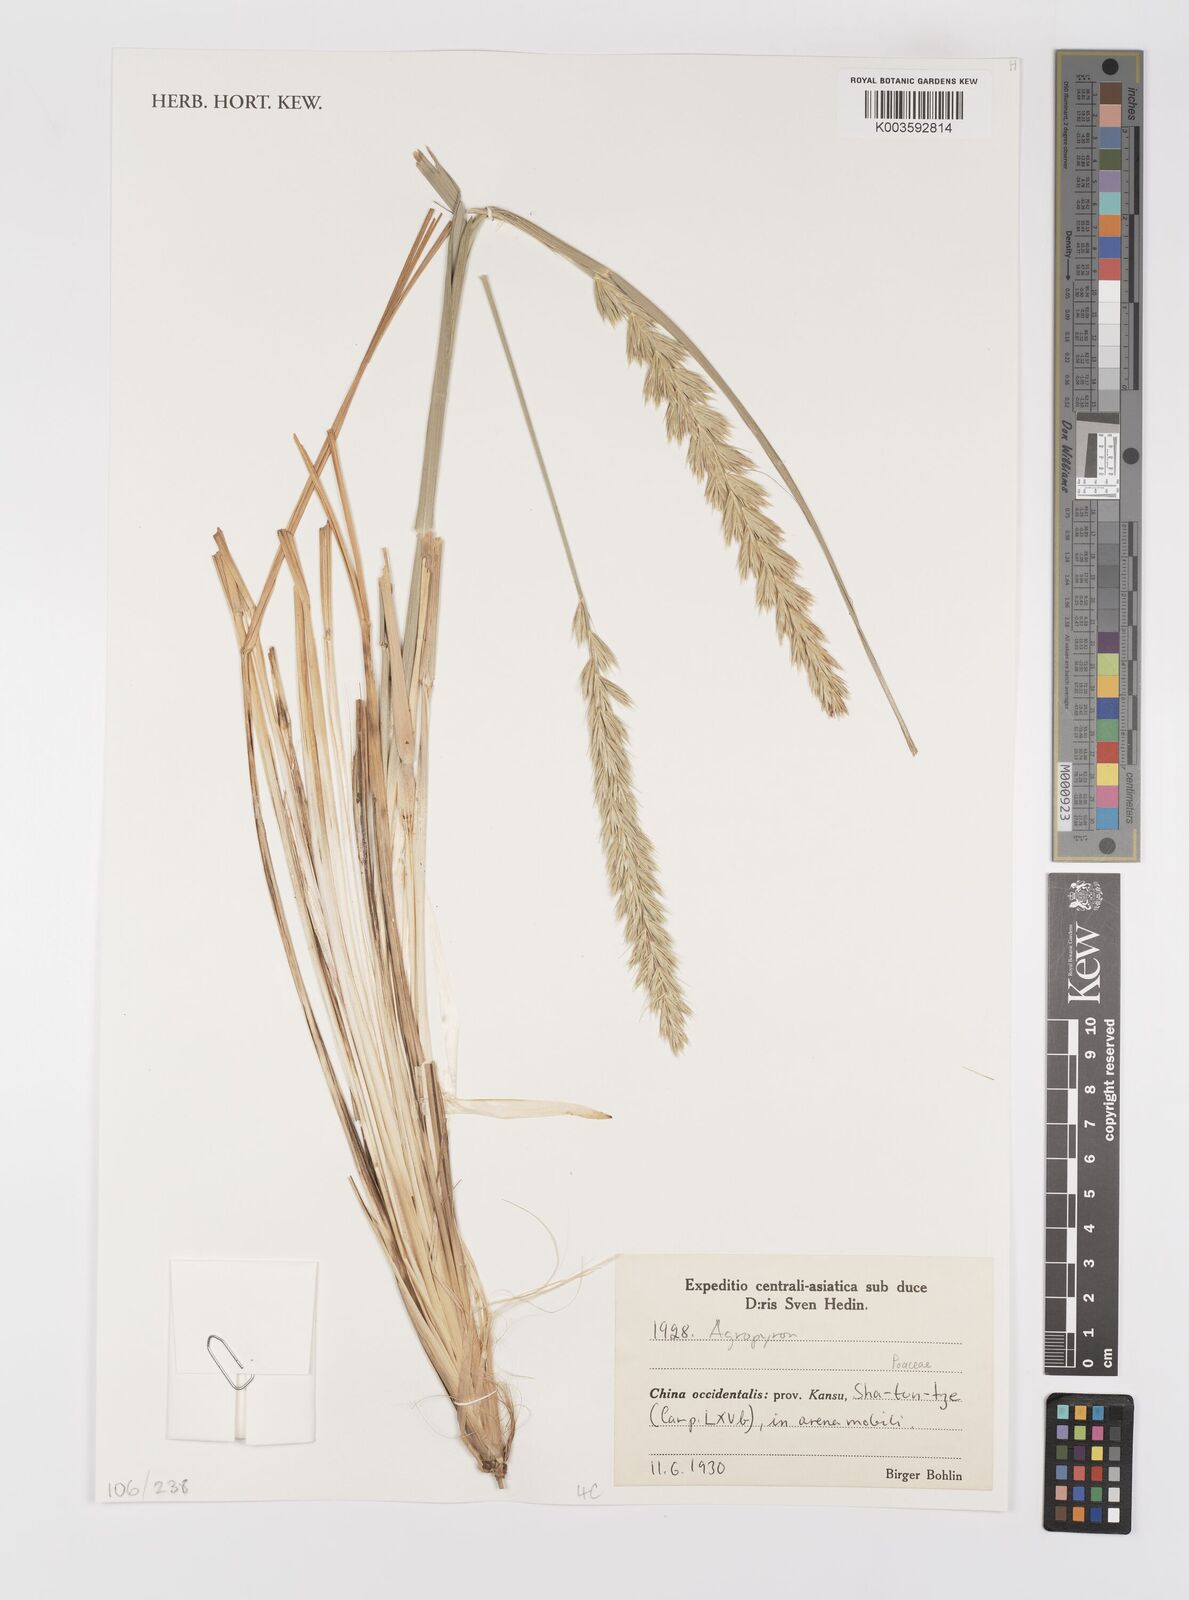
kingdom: Plantae
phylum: Tracheophyta
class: Liliopsida
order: Poales
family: Poaceae
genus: Agropyron
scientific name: Agropyron
